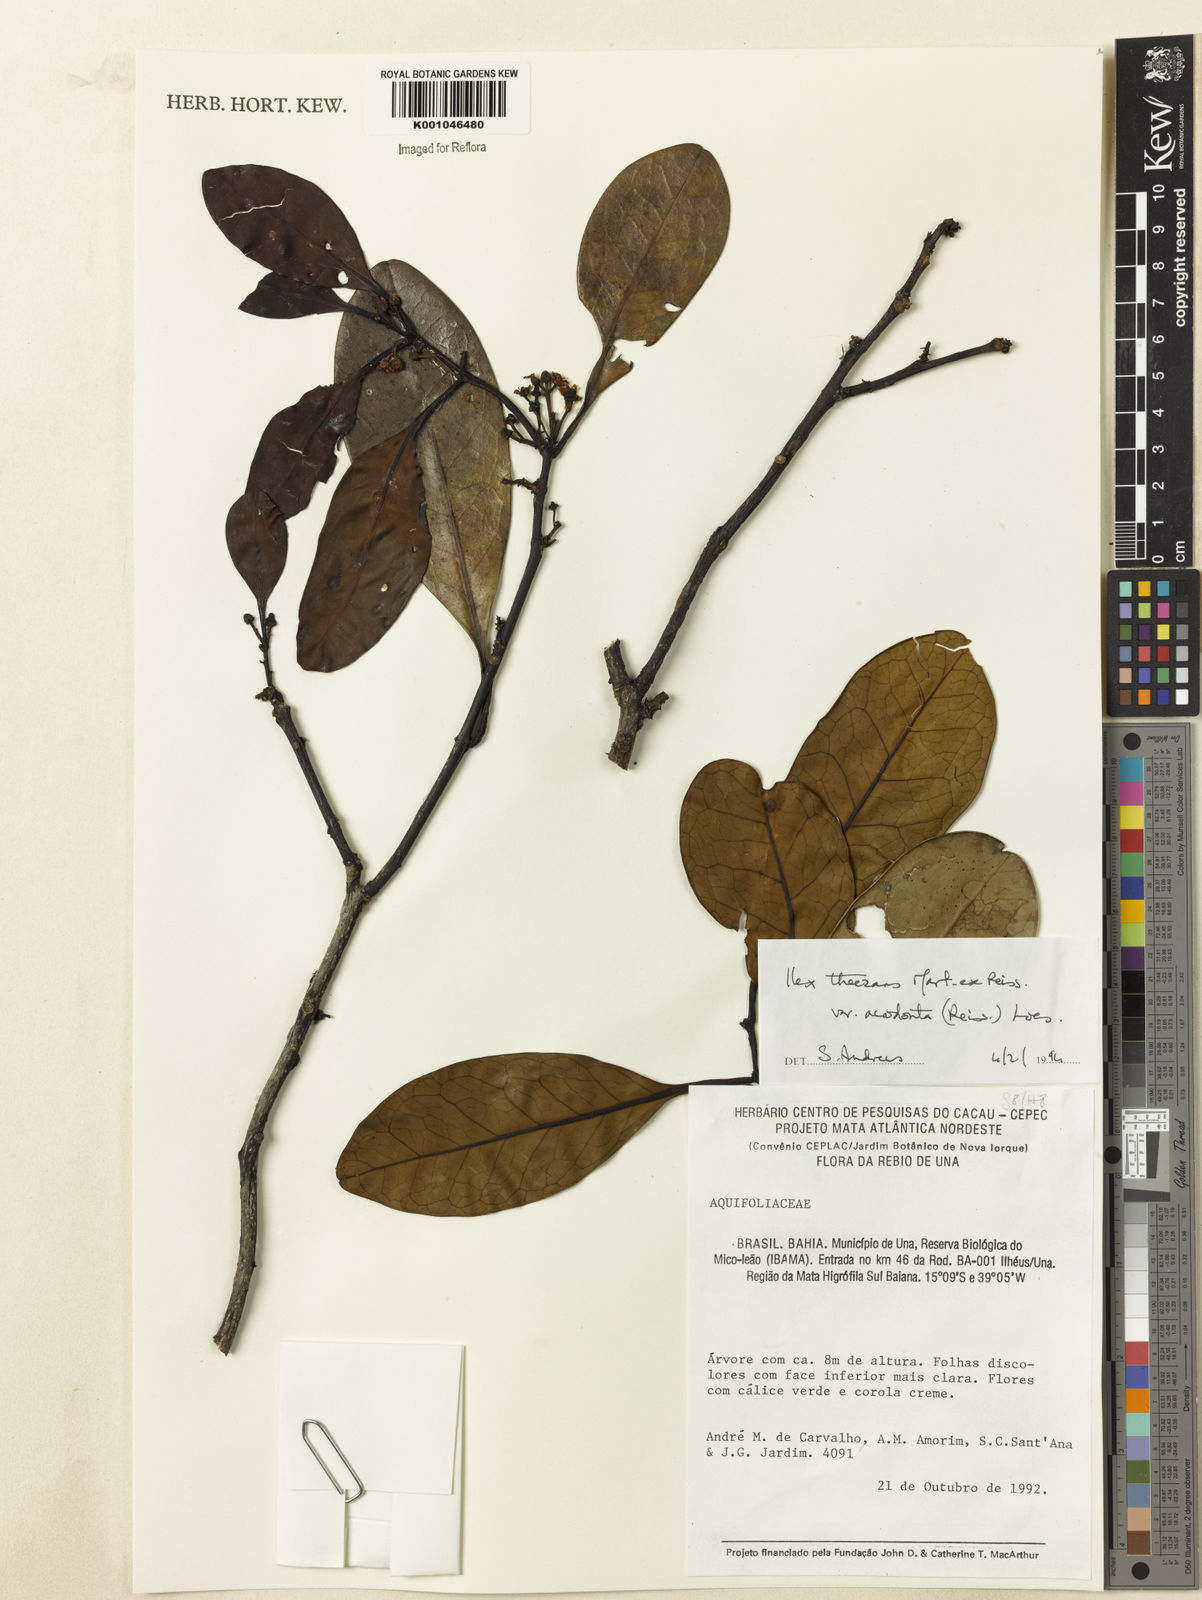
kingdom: Plantae
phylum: Tracheophyta
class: Magnoliopsida
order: Aquifoliales
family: Aquifoliaceae
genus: Ilex
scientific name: Ilex paraguariensis
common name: Paraguay tea
